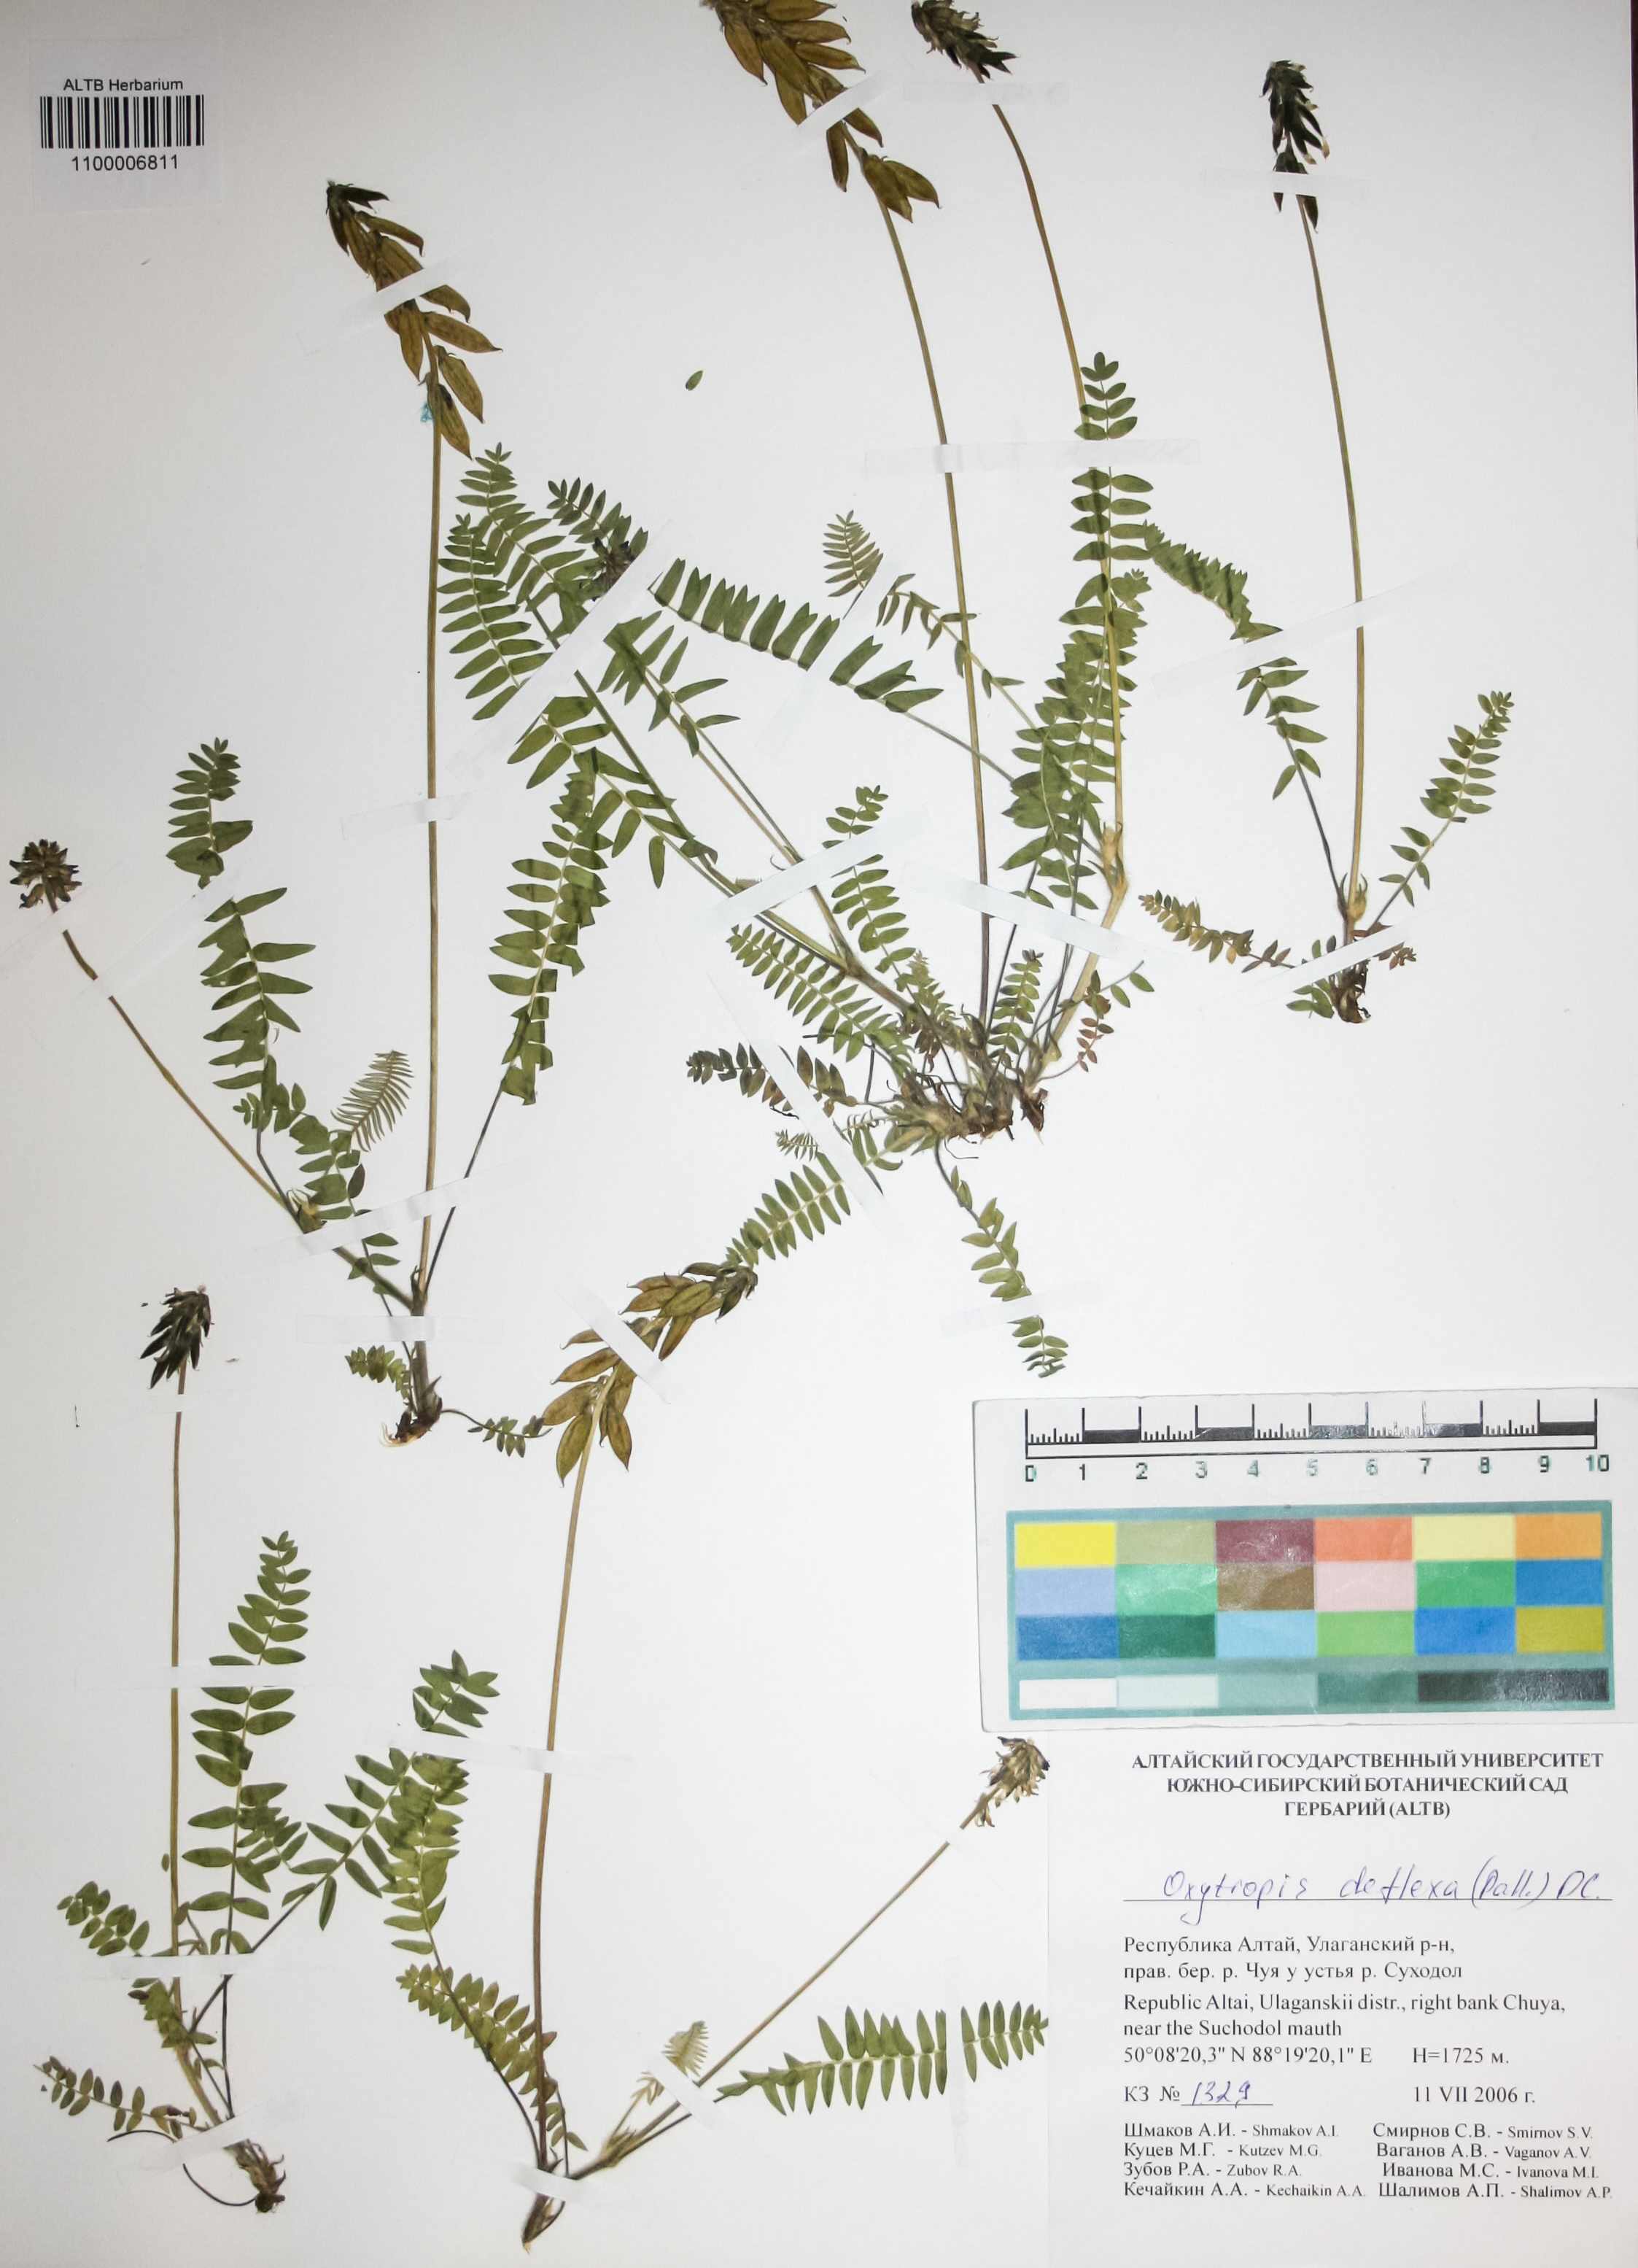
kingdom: Plantae
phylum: Tracheophyta
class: Magnoliopsida
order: Fabales
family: Fabaceae
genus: Oxytropis
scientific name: Oxytropis deflexa
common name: Stemmed oxytrope
